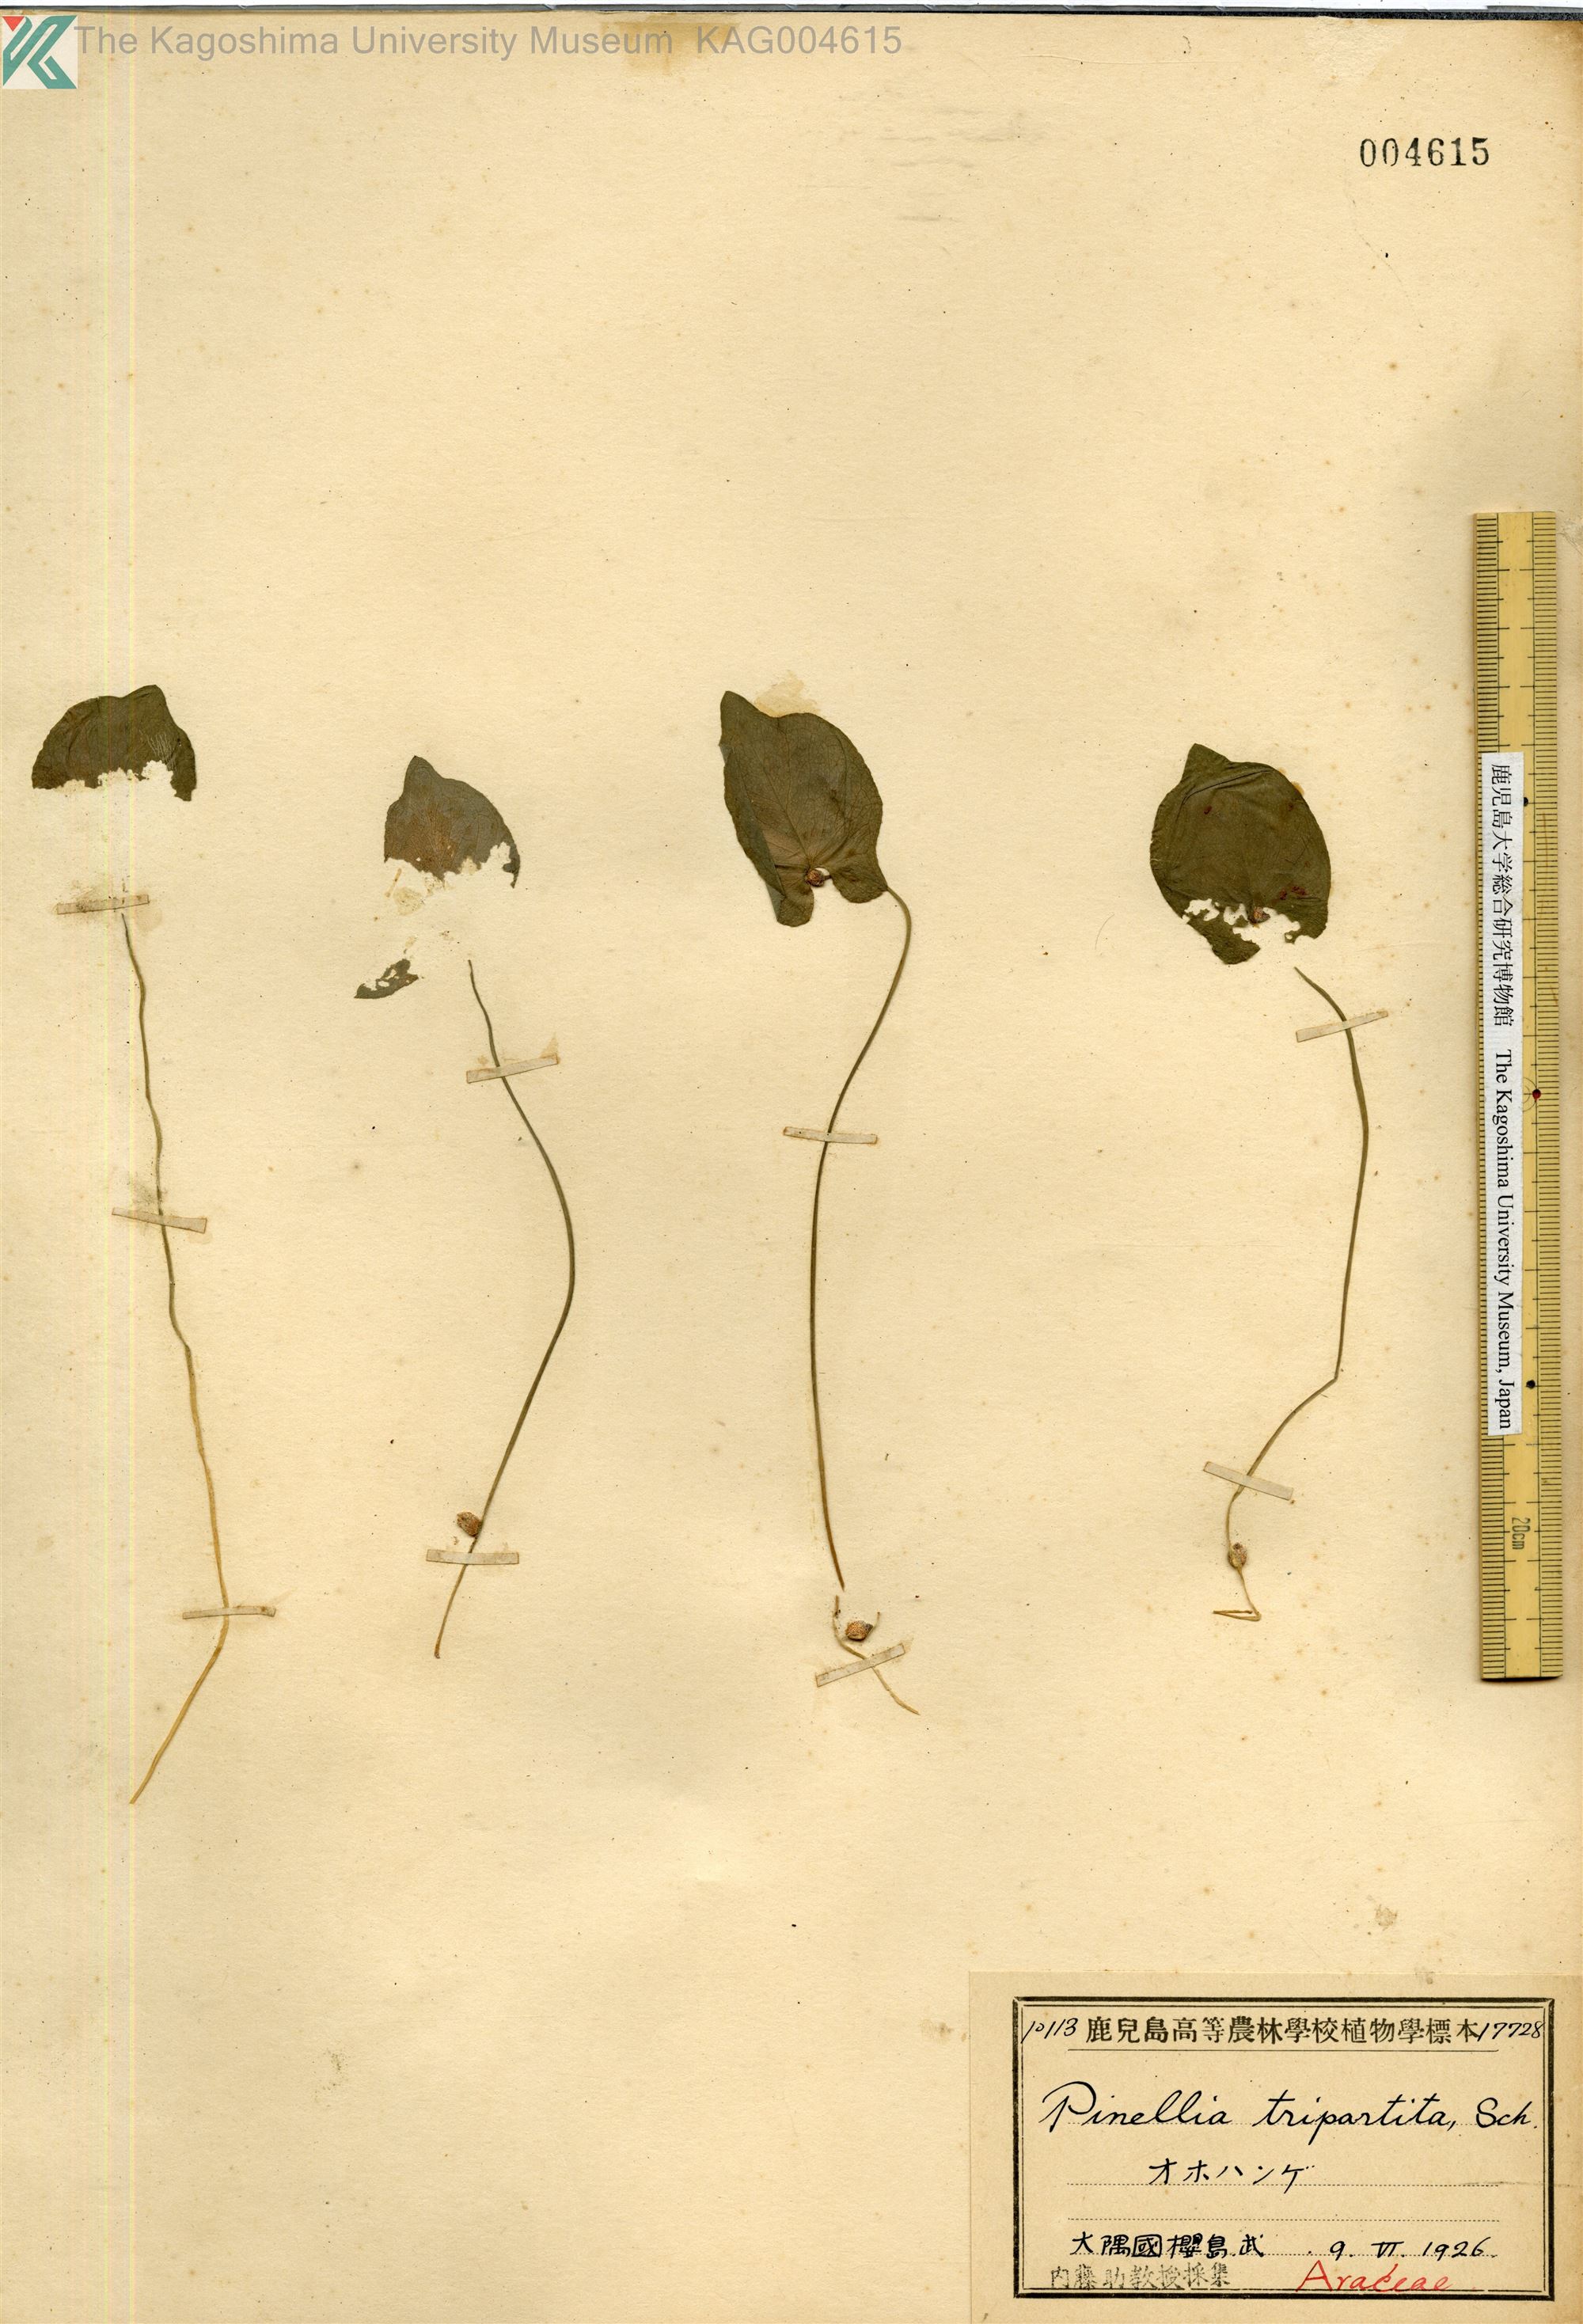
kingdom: Plantae
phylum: Tracheophyta
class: Liliopsida
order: Alismatales
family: Araceae
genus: Pinellia
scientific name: Pinellia tripartita
